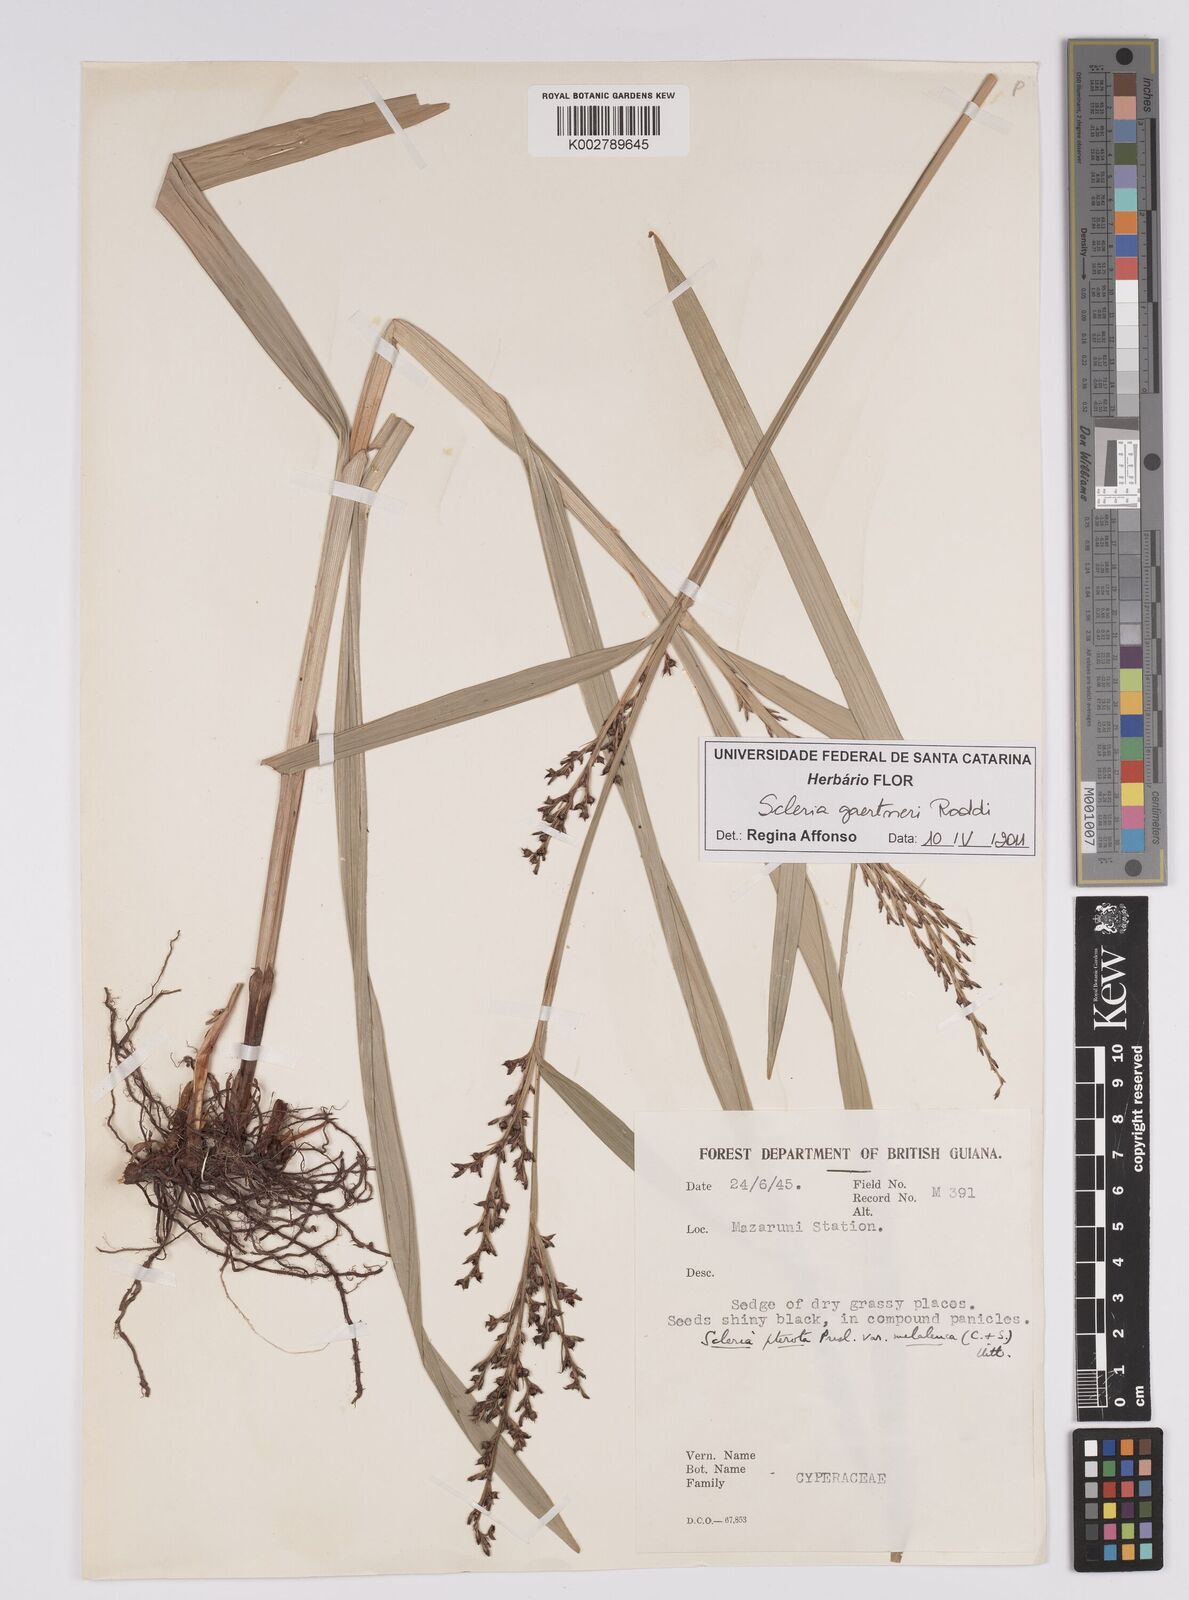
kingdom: Plantae
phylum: Tracheophyta
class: Liliopsida
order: Poales
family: Cyperaceae
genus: Scleria
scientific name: Scleria gaertneri
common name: Cortadera blanca
